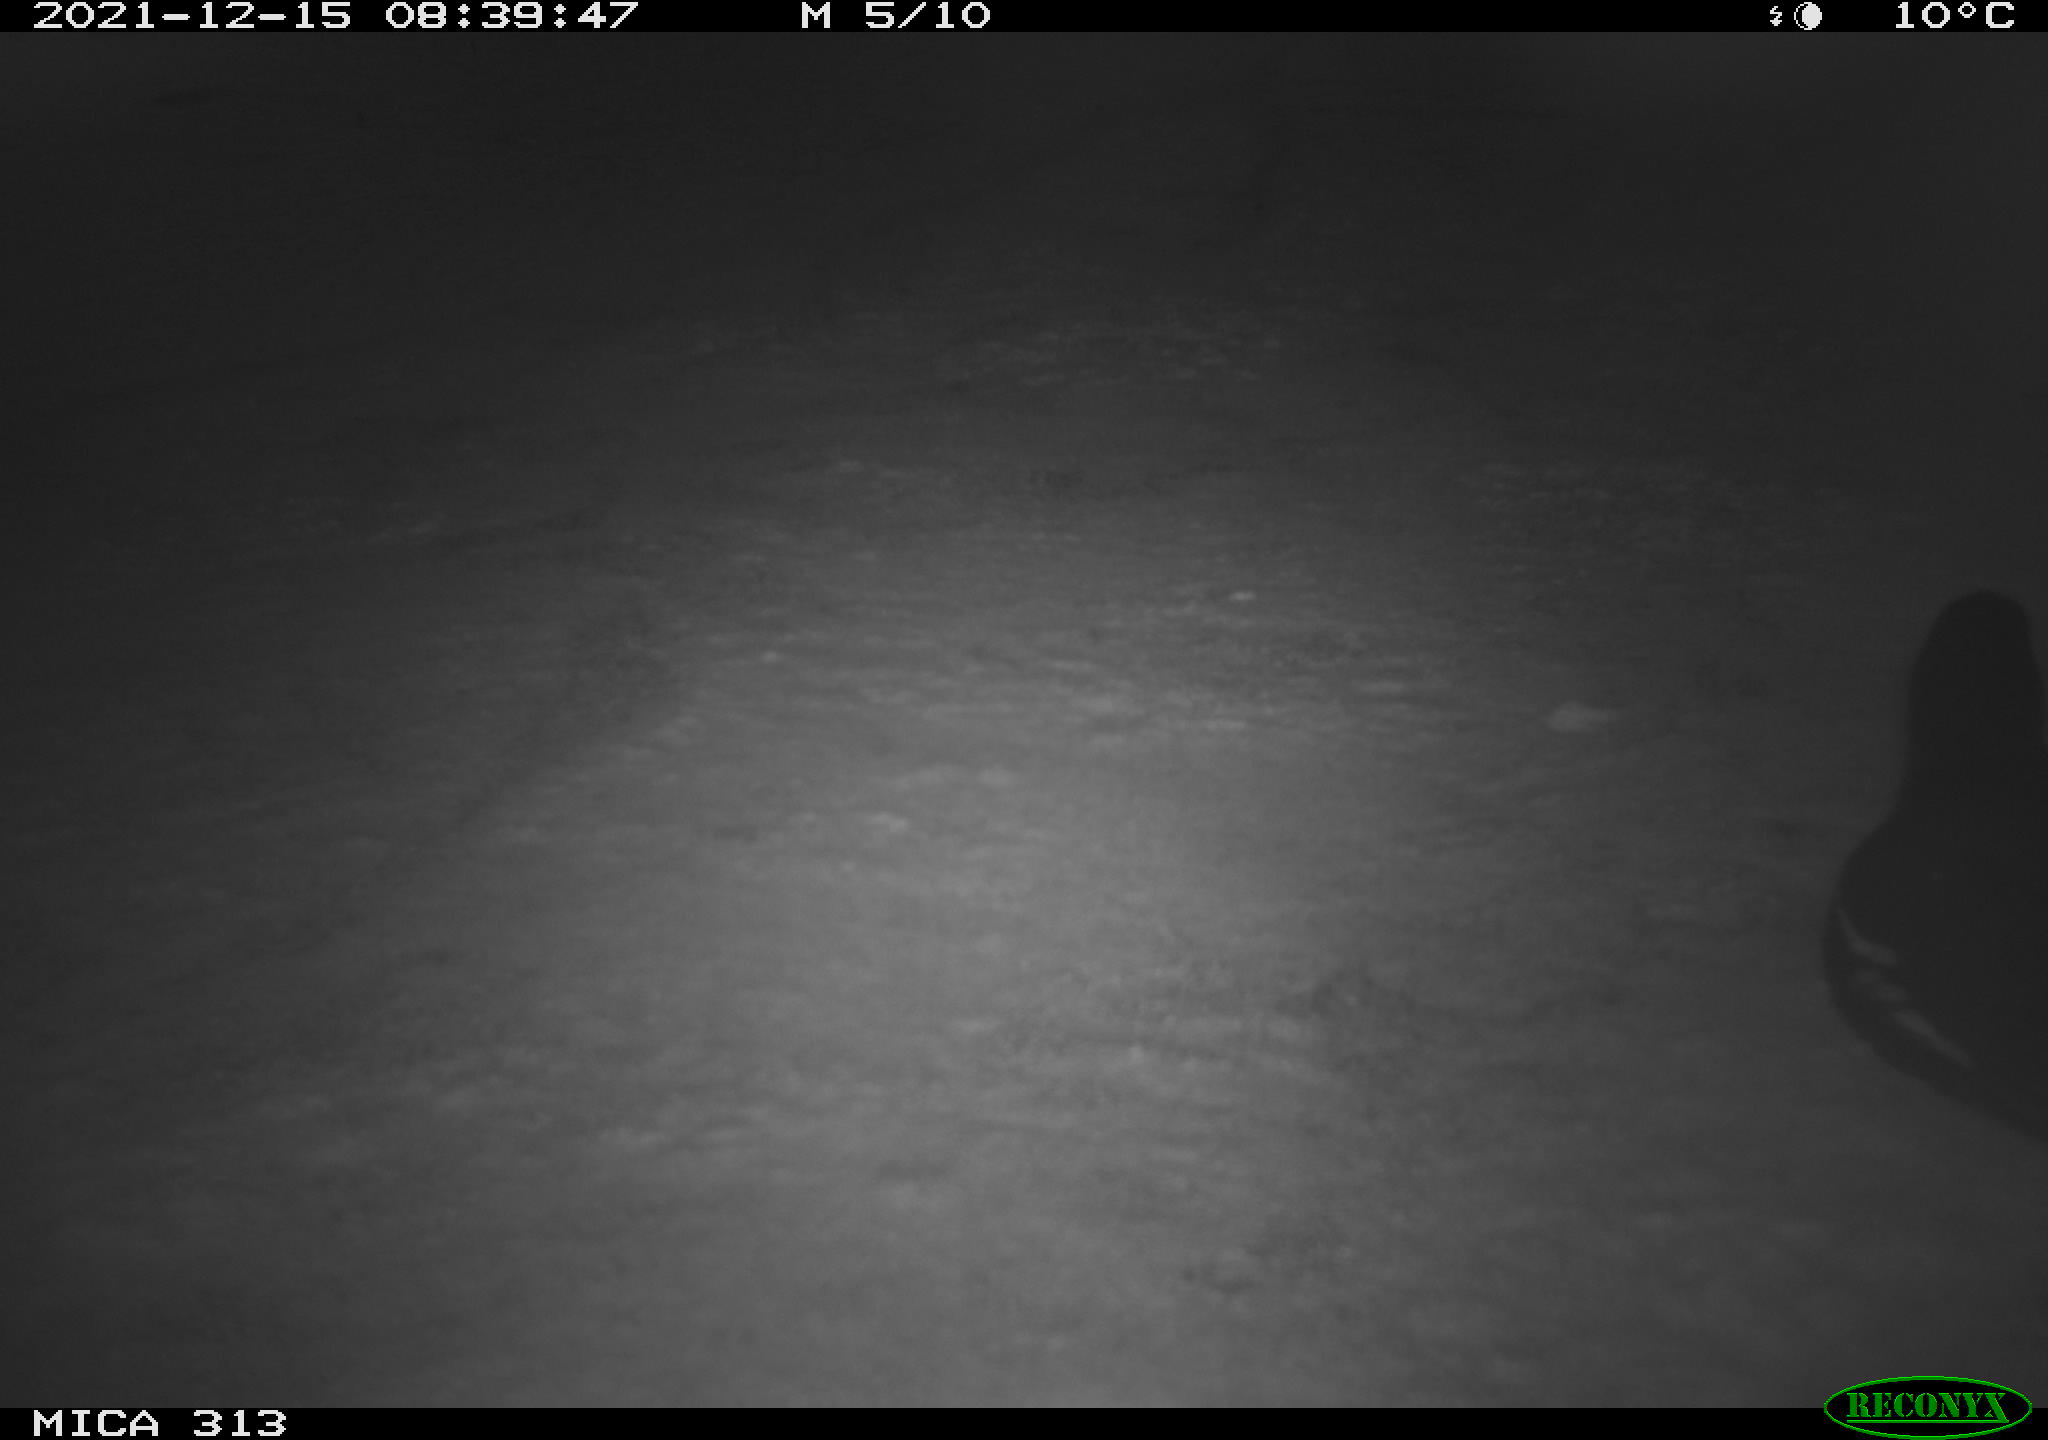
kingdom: Animalia
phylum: Chordata
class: Aves
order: Gruiformes
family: Rallidae
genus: Fulica
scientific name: Fulica atra
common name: Eurasian coot
